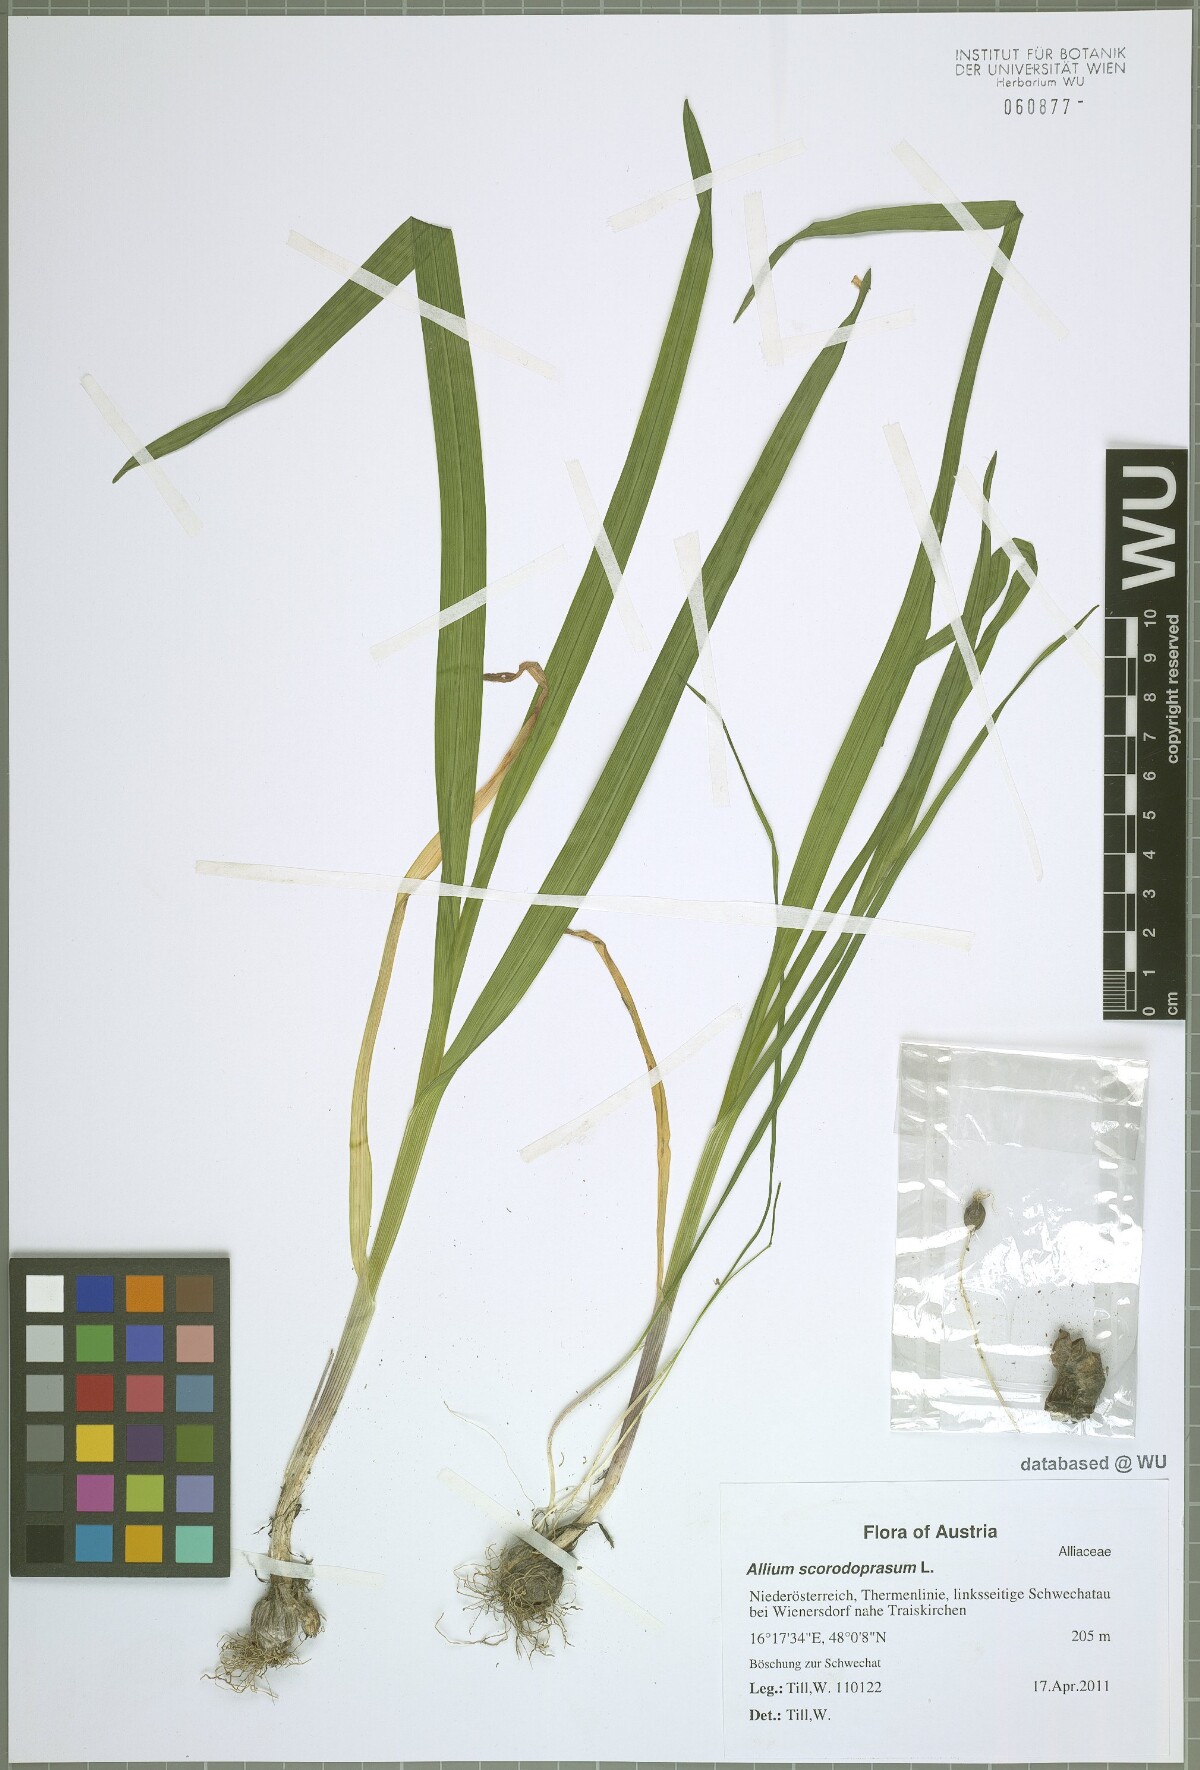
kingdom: Plantae
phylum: Tracheophyta
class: Liliopsida
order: Asparagales
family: Amaryllidaceae
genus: Allium
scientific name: Allium scorodoprasum
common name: Sand leek
